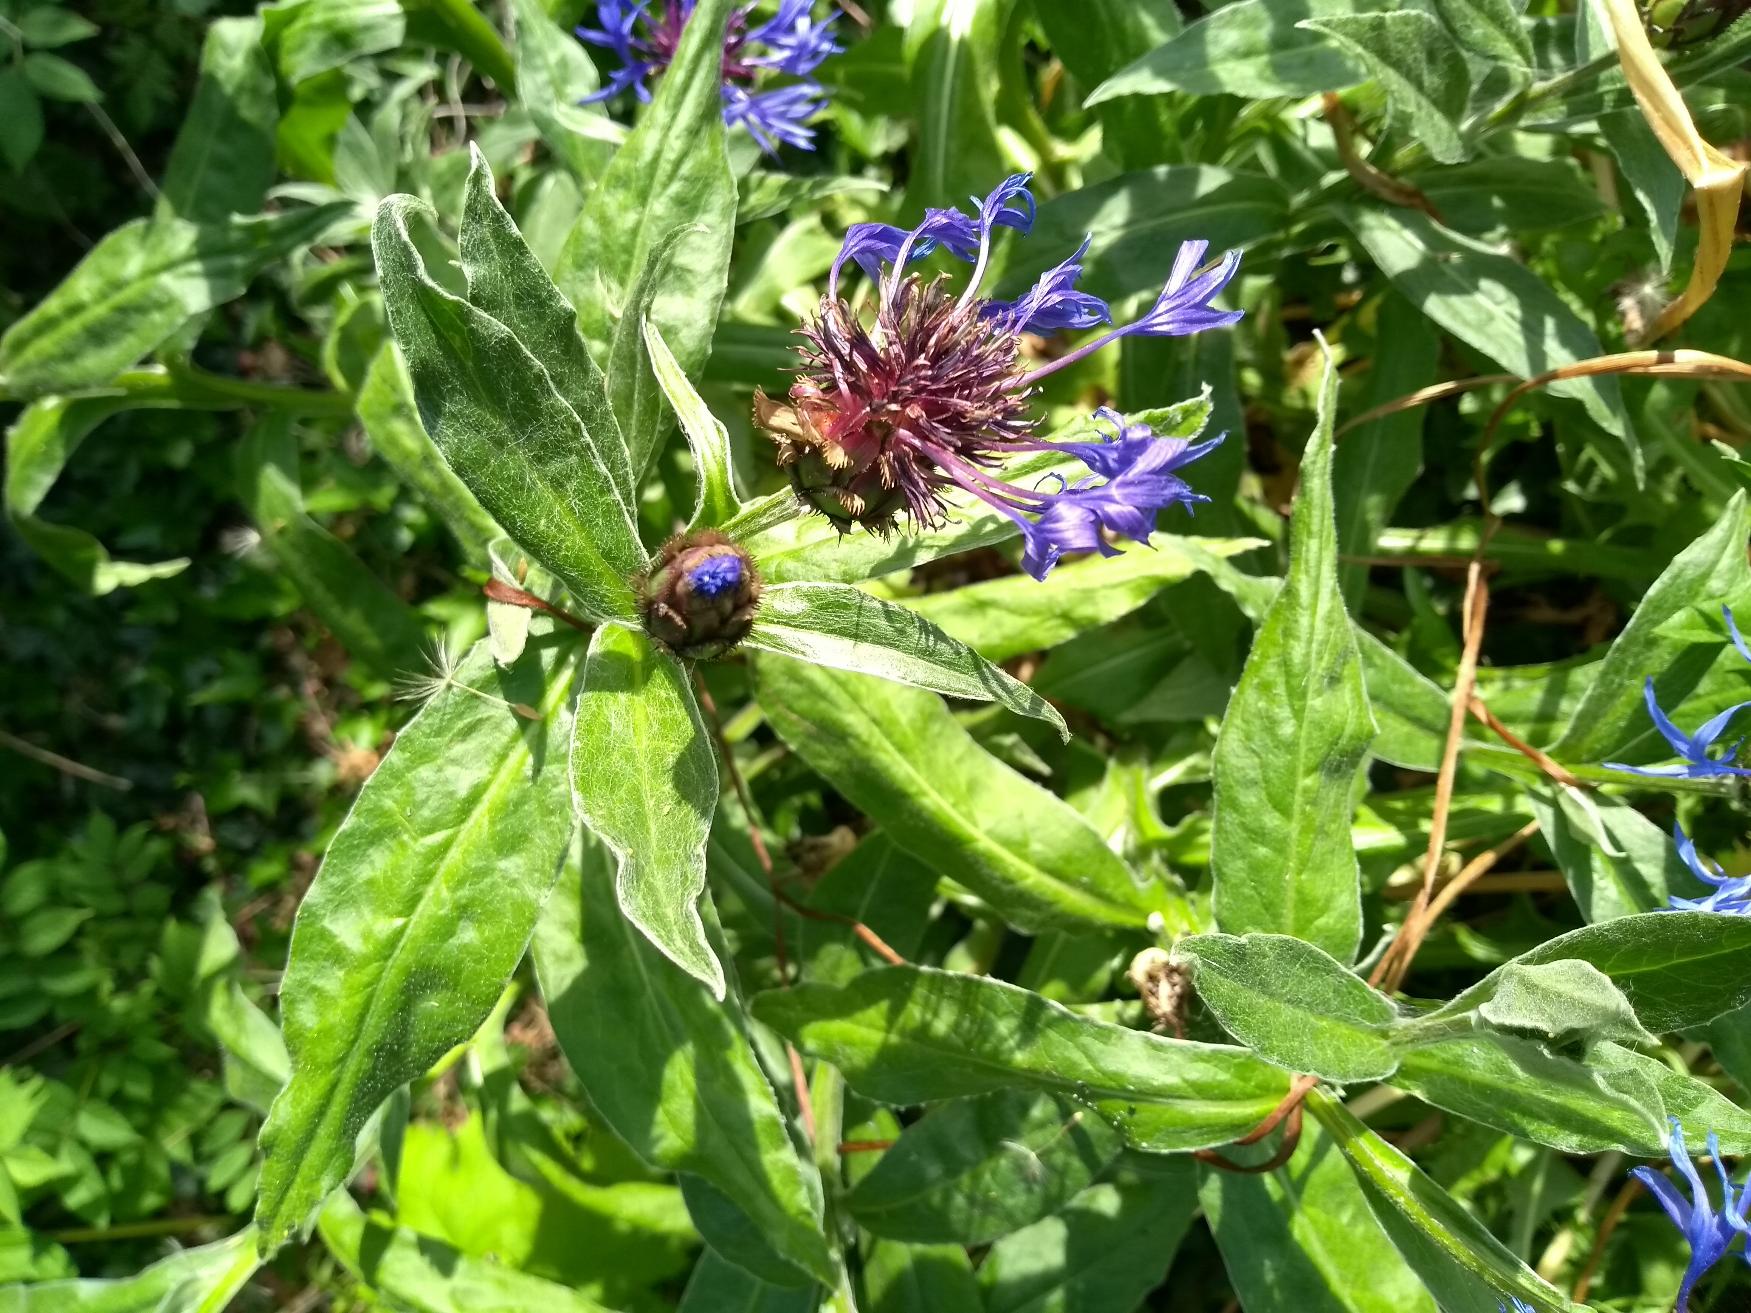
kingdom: Plantae
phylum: Tracheophyta
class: Magnoliopsida
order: Asterales
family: Asteraceae
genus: Centaurea
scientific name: Centaurea montana
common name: Bjerg-knopurt
